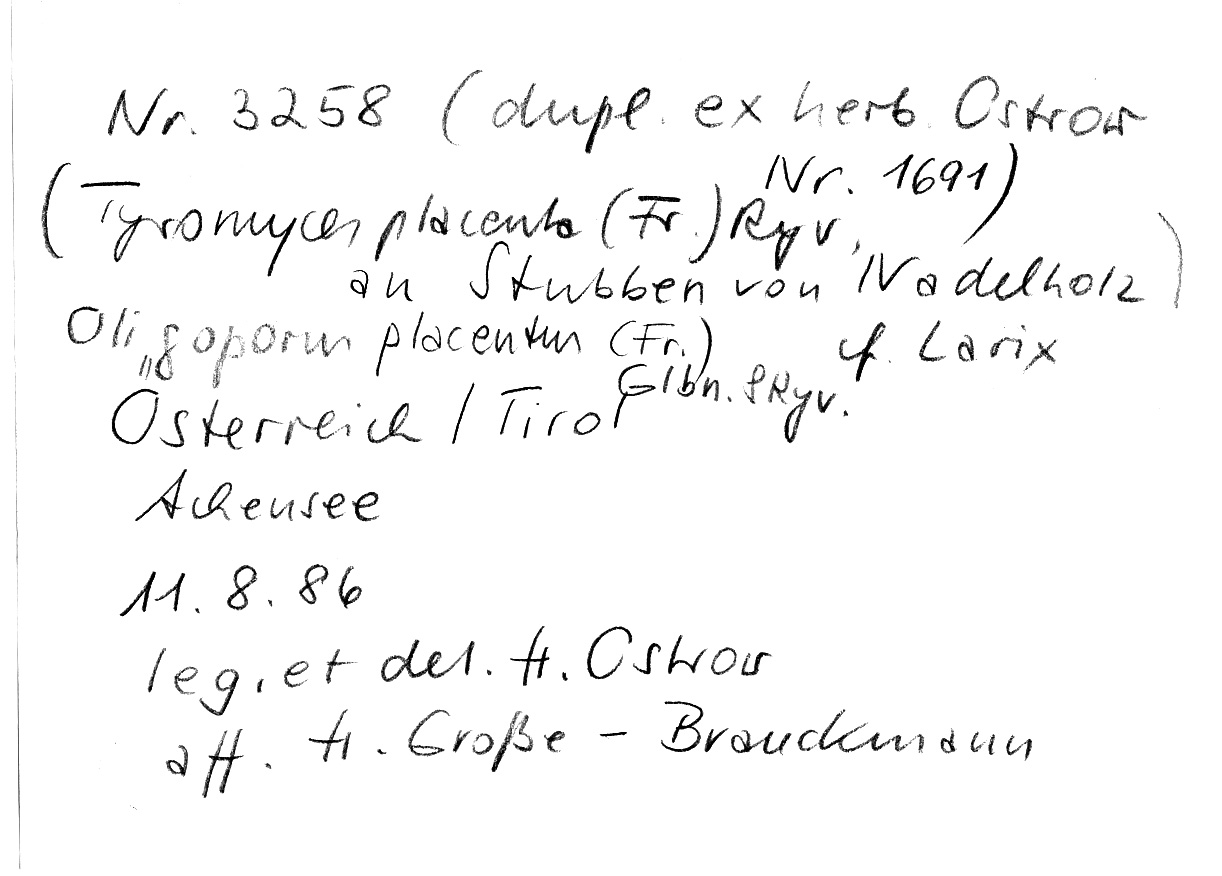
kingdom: Plantae
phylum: Tracheophyta
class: Pinopsida
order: Pinales
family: Pinaceae
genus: Larix
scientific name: Larix
